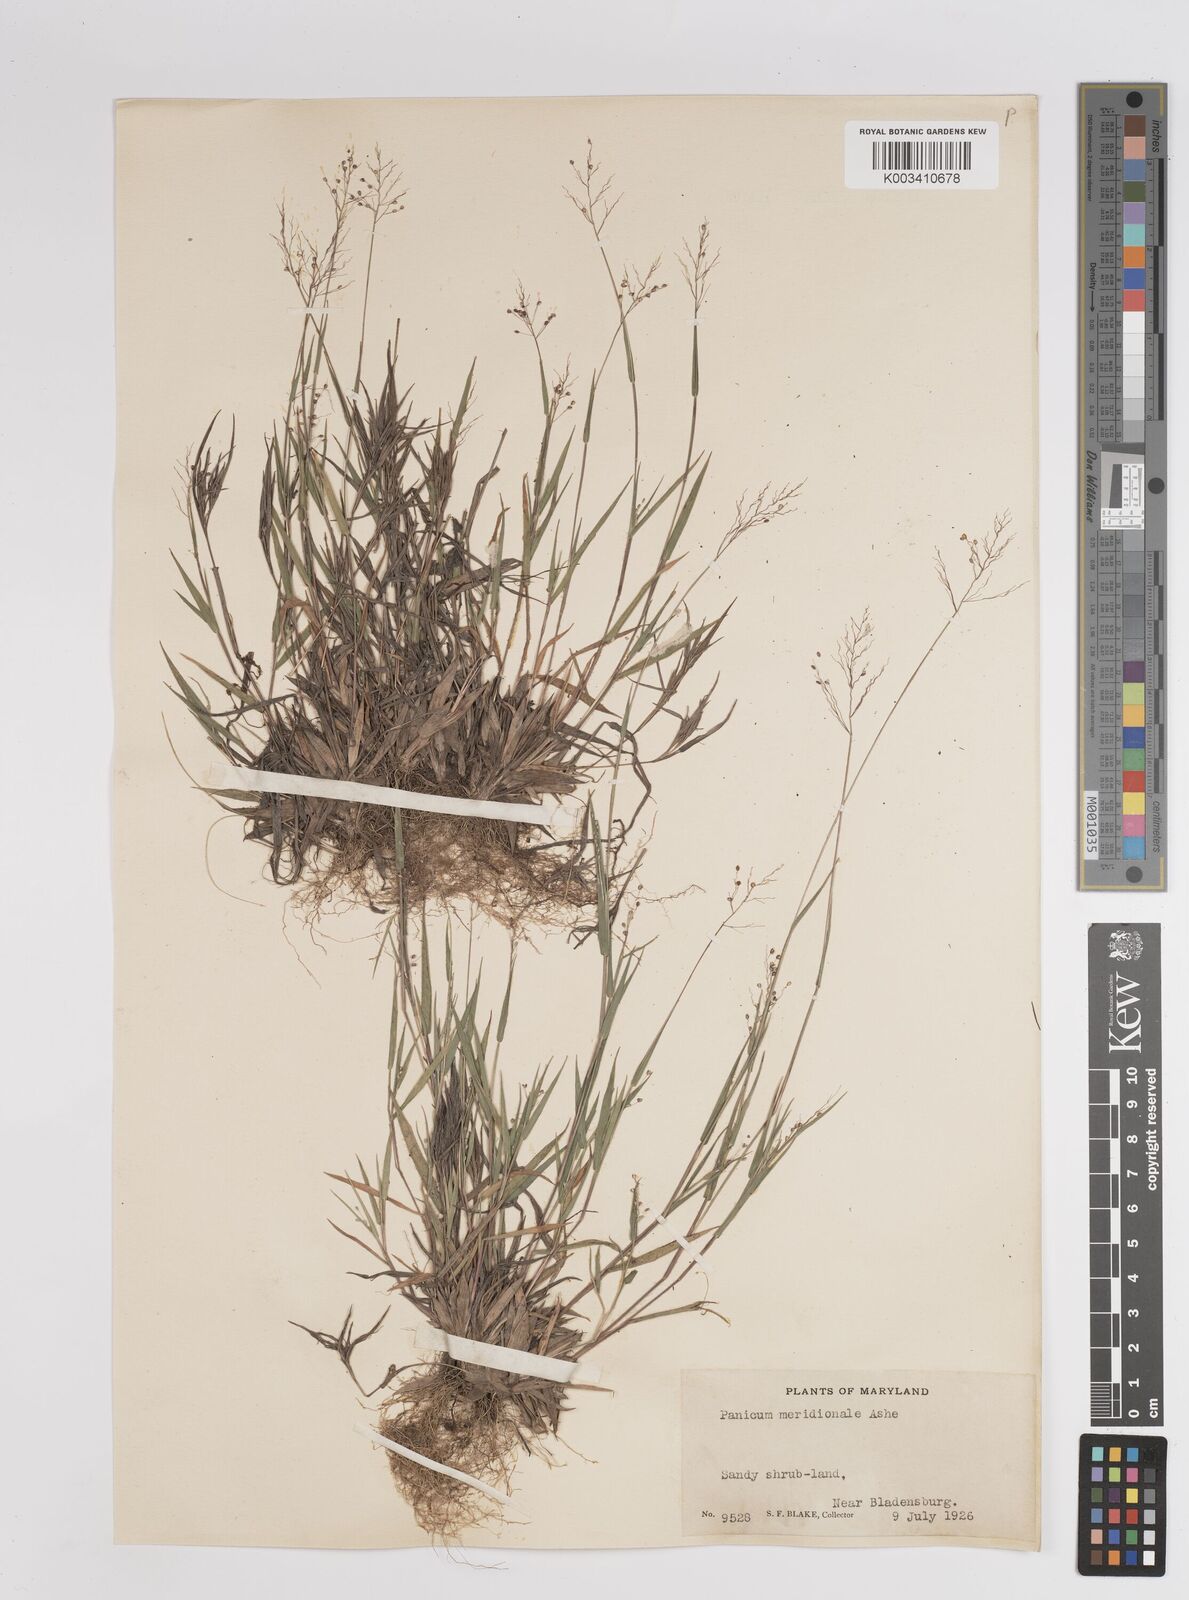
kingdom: Plantae
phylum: Tracheophyta
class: Liliopsida
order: Poales
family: Poaceae
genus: Dichanthelium
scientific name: Dichanthelium meridionale
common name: Mat panicgrass
